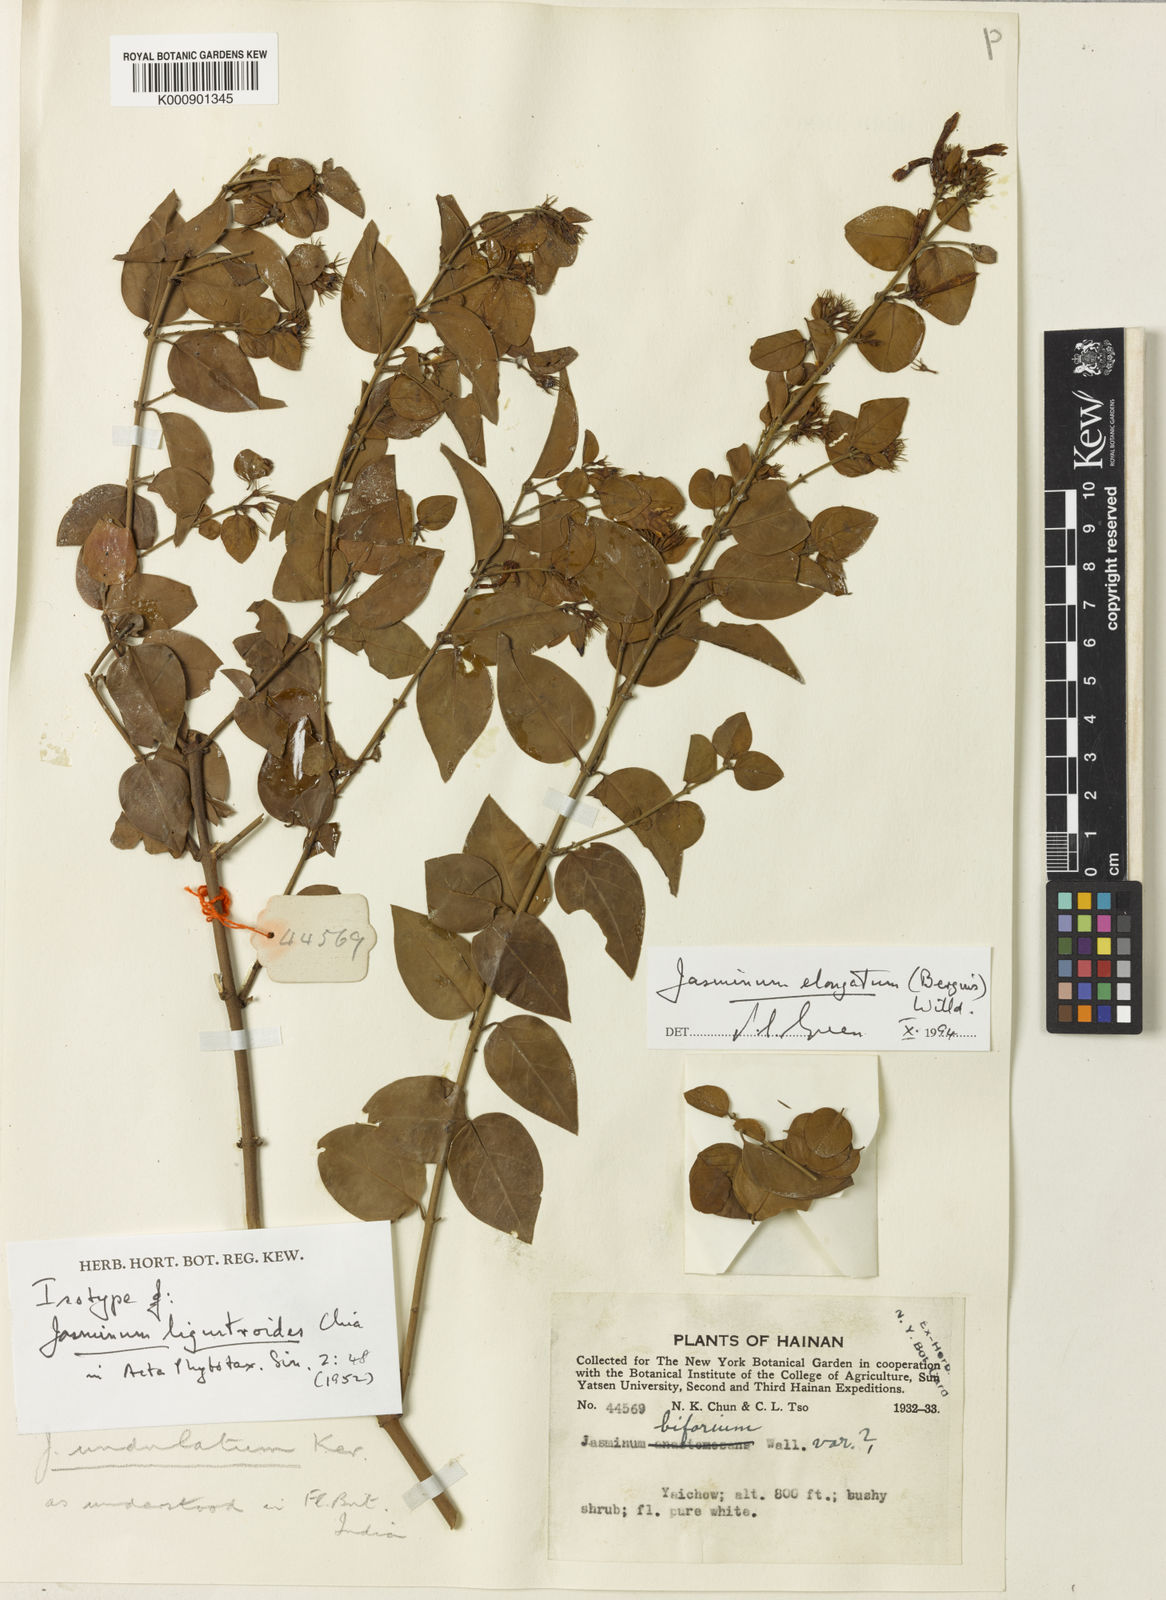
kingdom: Plantae
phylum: Tracheophyta
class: Magnoliopsida
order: Lamiales
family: Oleaceae
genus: Jasminum
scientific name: Jasminum elongatum
